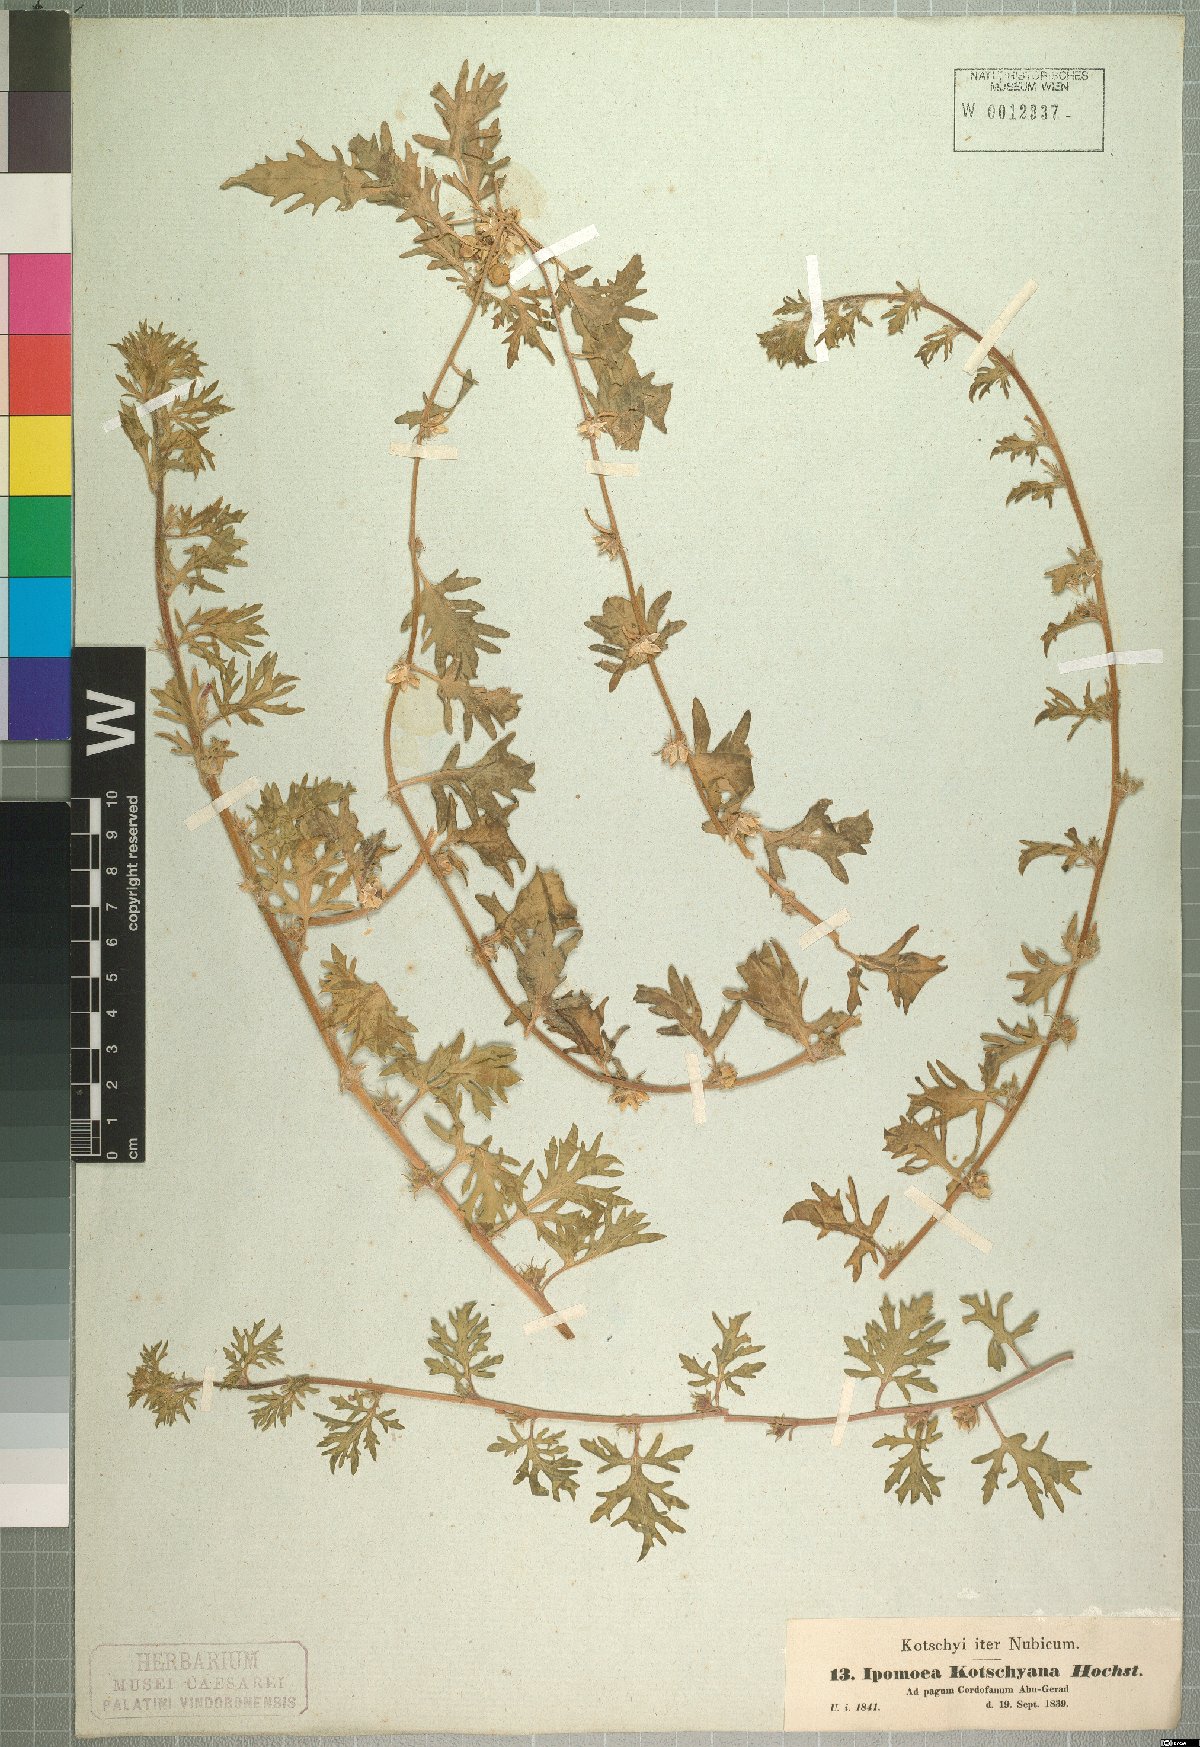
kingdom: Plantae
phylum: Tracheophyta
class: Magnoliopsida
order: Solanales
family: Convolvulaceae
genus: Ipomoea
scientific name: Ipomoea kotschyana
